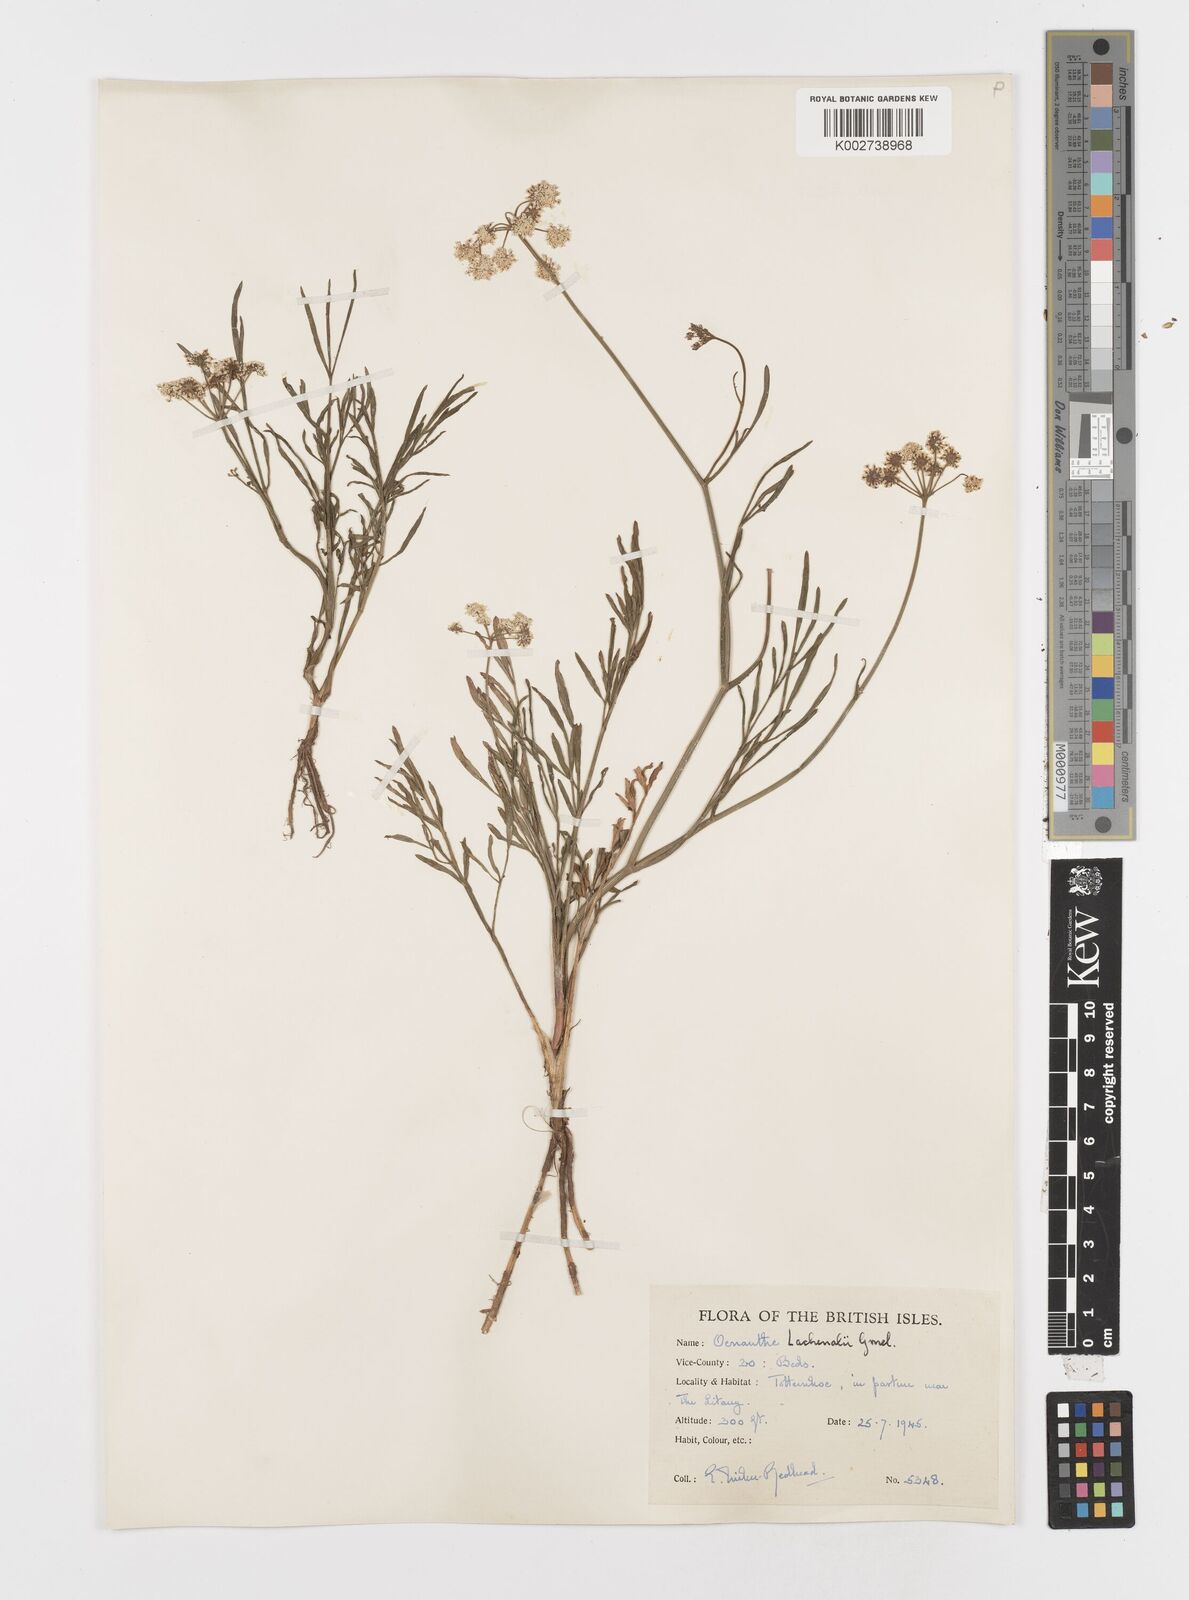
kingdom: Plantae
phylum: Tracheophyta
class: Magnoliopsida
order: Apiales
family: Apiaceae
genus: Oenanthe
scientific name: Oenanthe lachenalii
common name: Parsley water-dropwort
